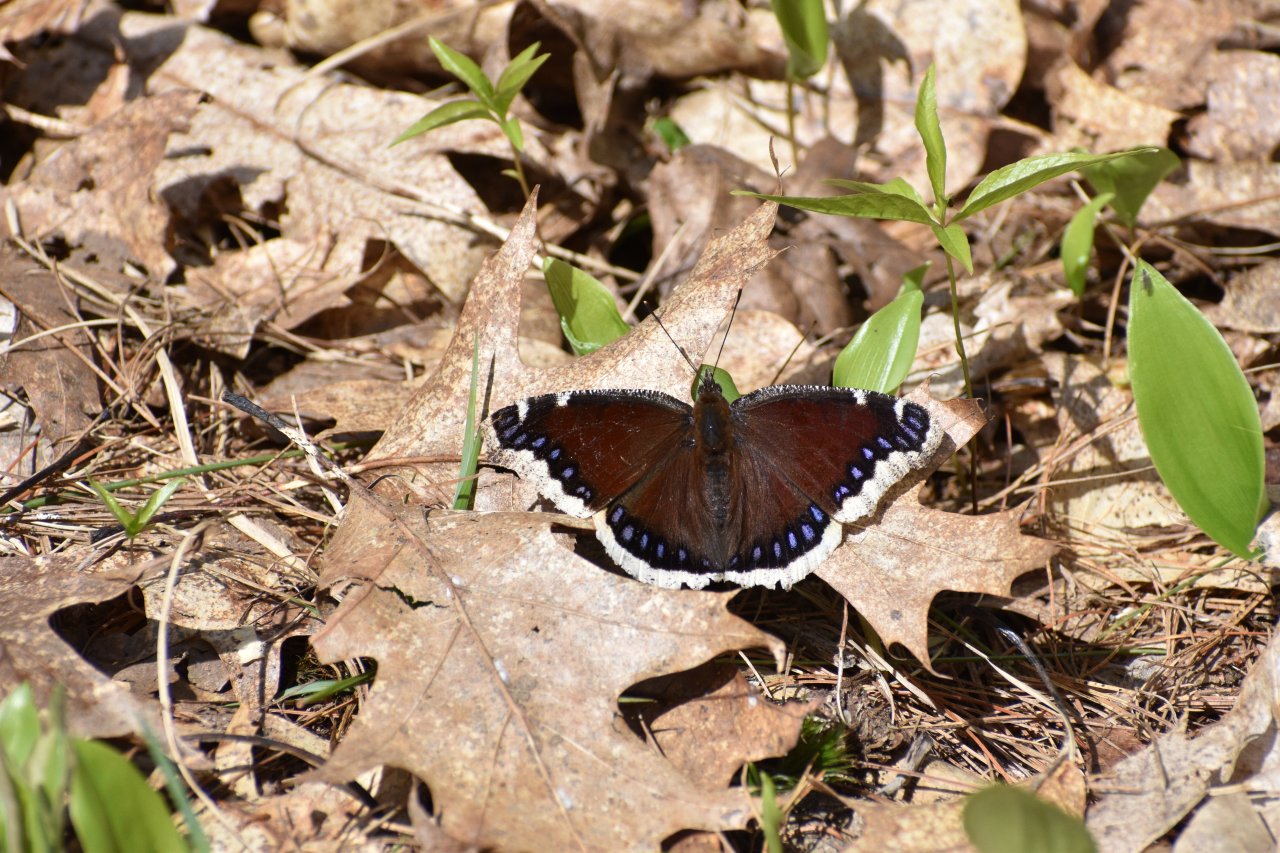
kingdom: Animalia
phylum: Arthropoda
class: Insecta
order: Lepidoptera
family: Nymphalidae
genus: Nymphalis
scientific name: Nymphalis antiopa
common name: Mourning Cloak
